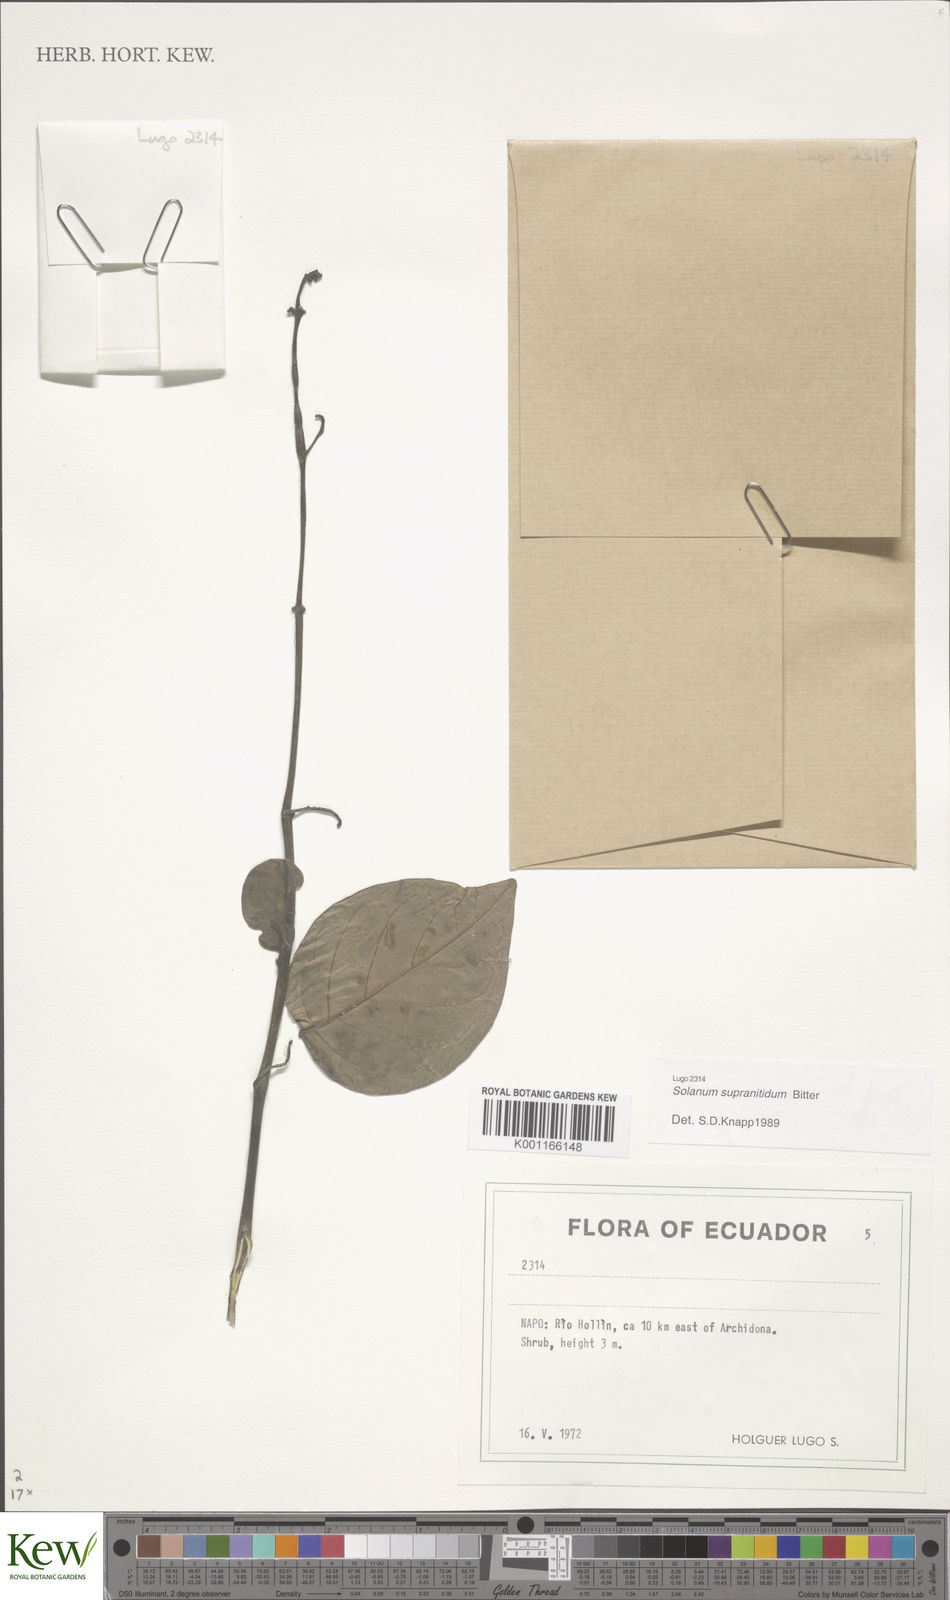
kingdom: Plantae
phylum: Tracheophyta
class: Magnoliopsida
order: Solanales
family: Solanaceae
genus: Solanum
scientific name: Solanum nudum
